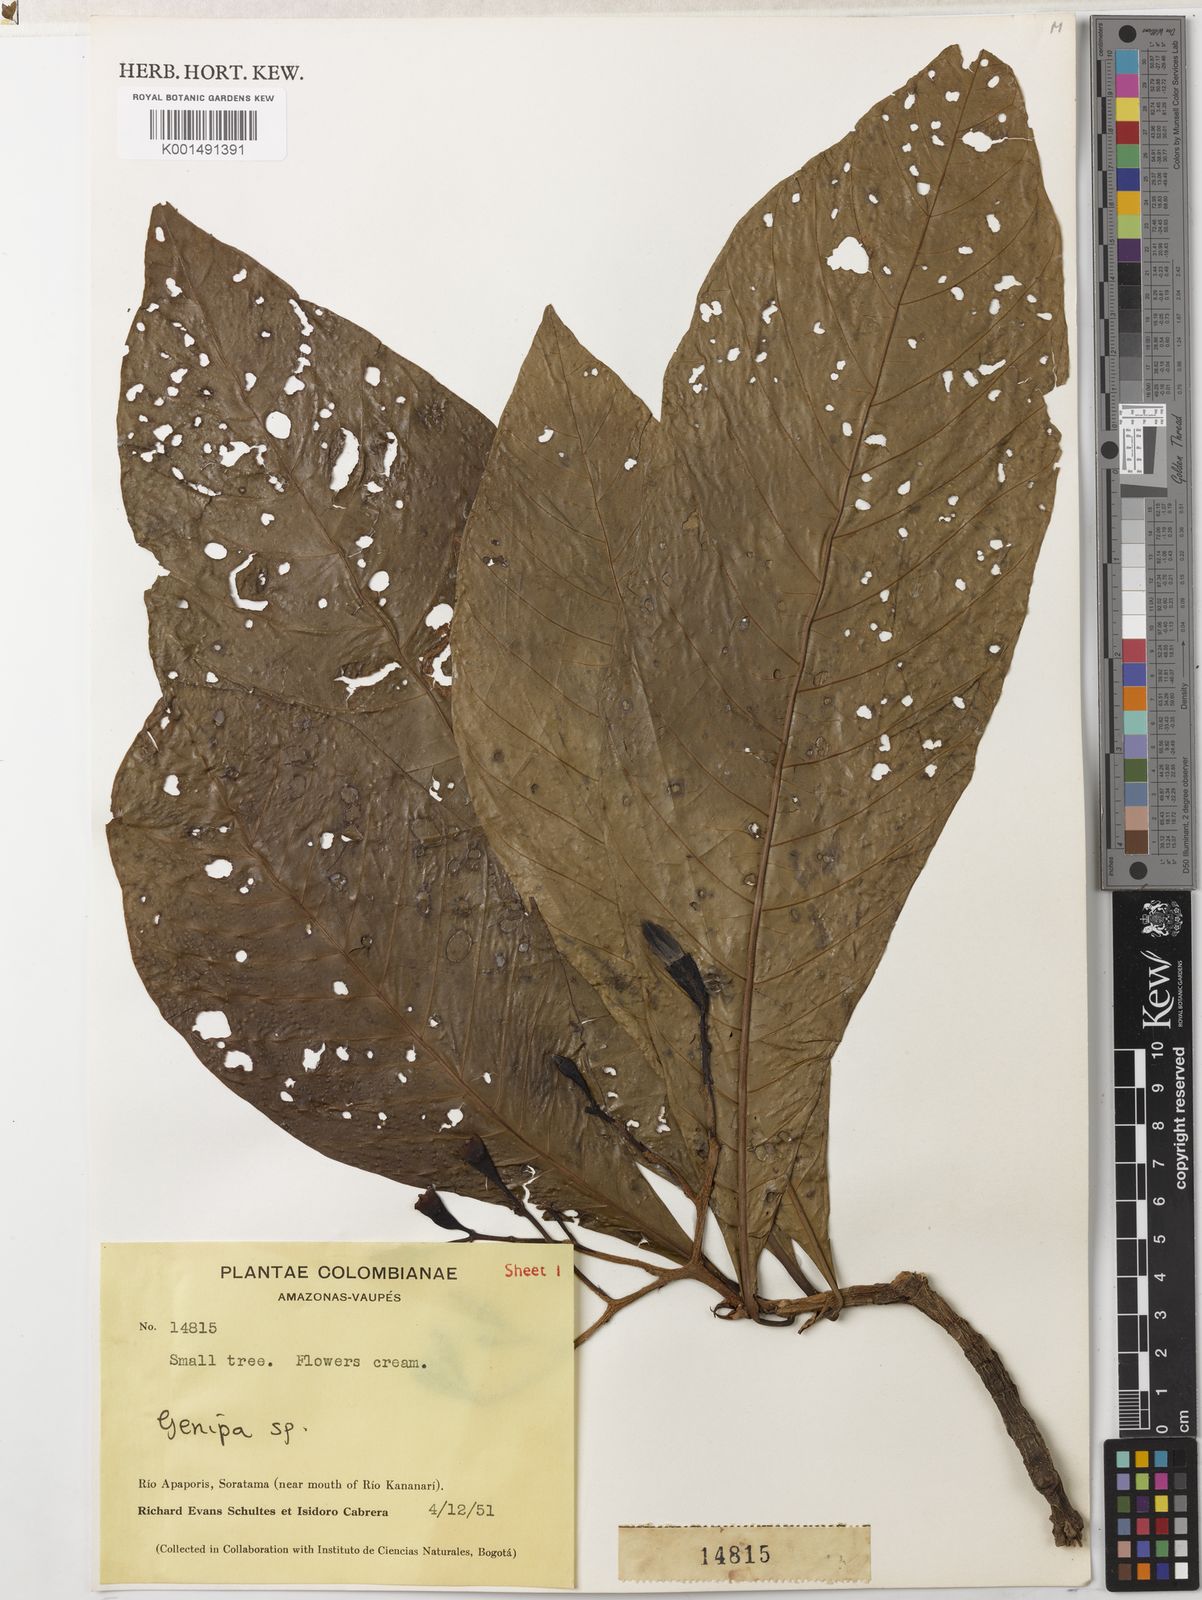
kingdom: Plantae
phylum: Tracheophyta
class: Magnoliopsida
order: Gentianales
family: Rubiaceae
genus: Genipa
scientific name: Genipa americana
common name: Genipap
